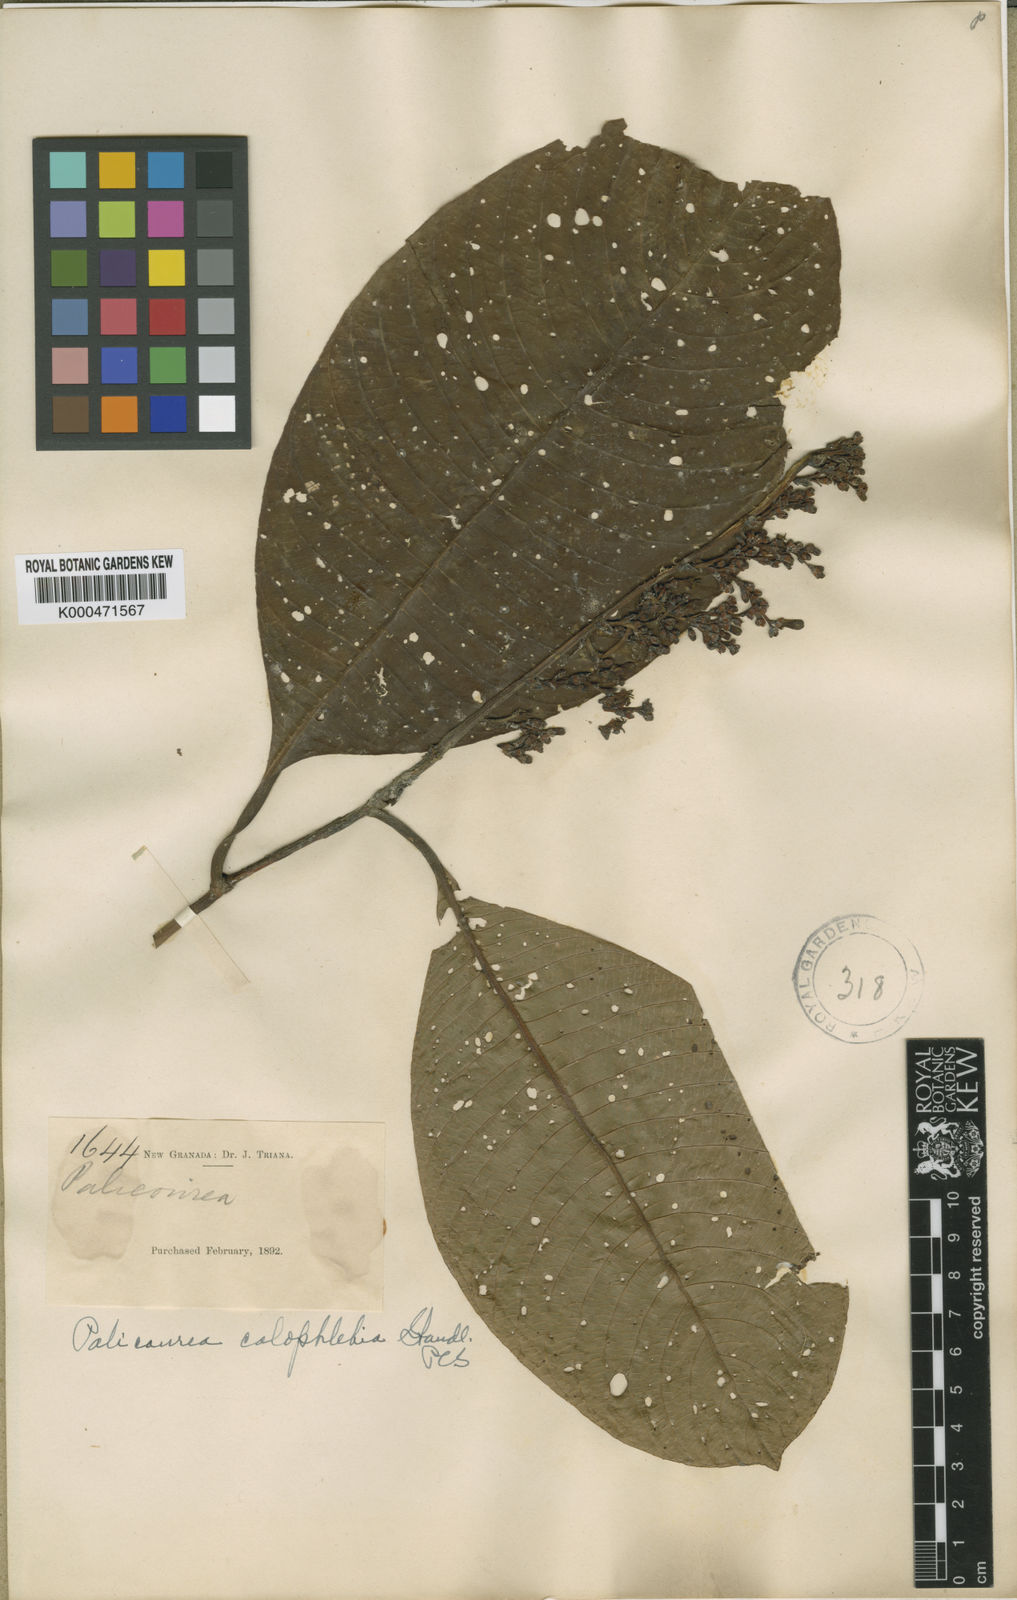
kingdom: Plantae
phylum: Tracheophyta
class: Magnoliopsida
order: Gentianales
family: Rubiaceae
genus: Palicourea
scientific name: Palicourea calophlebia
